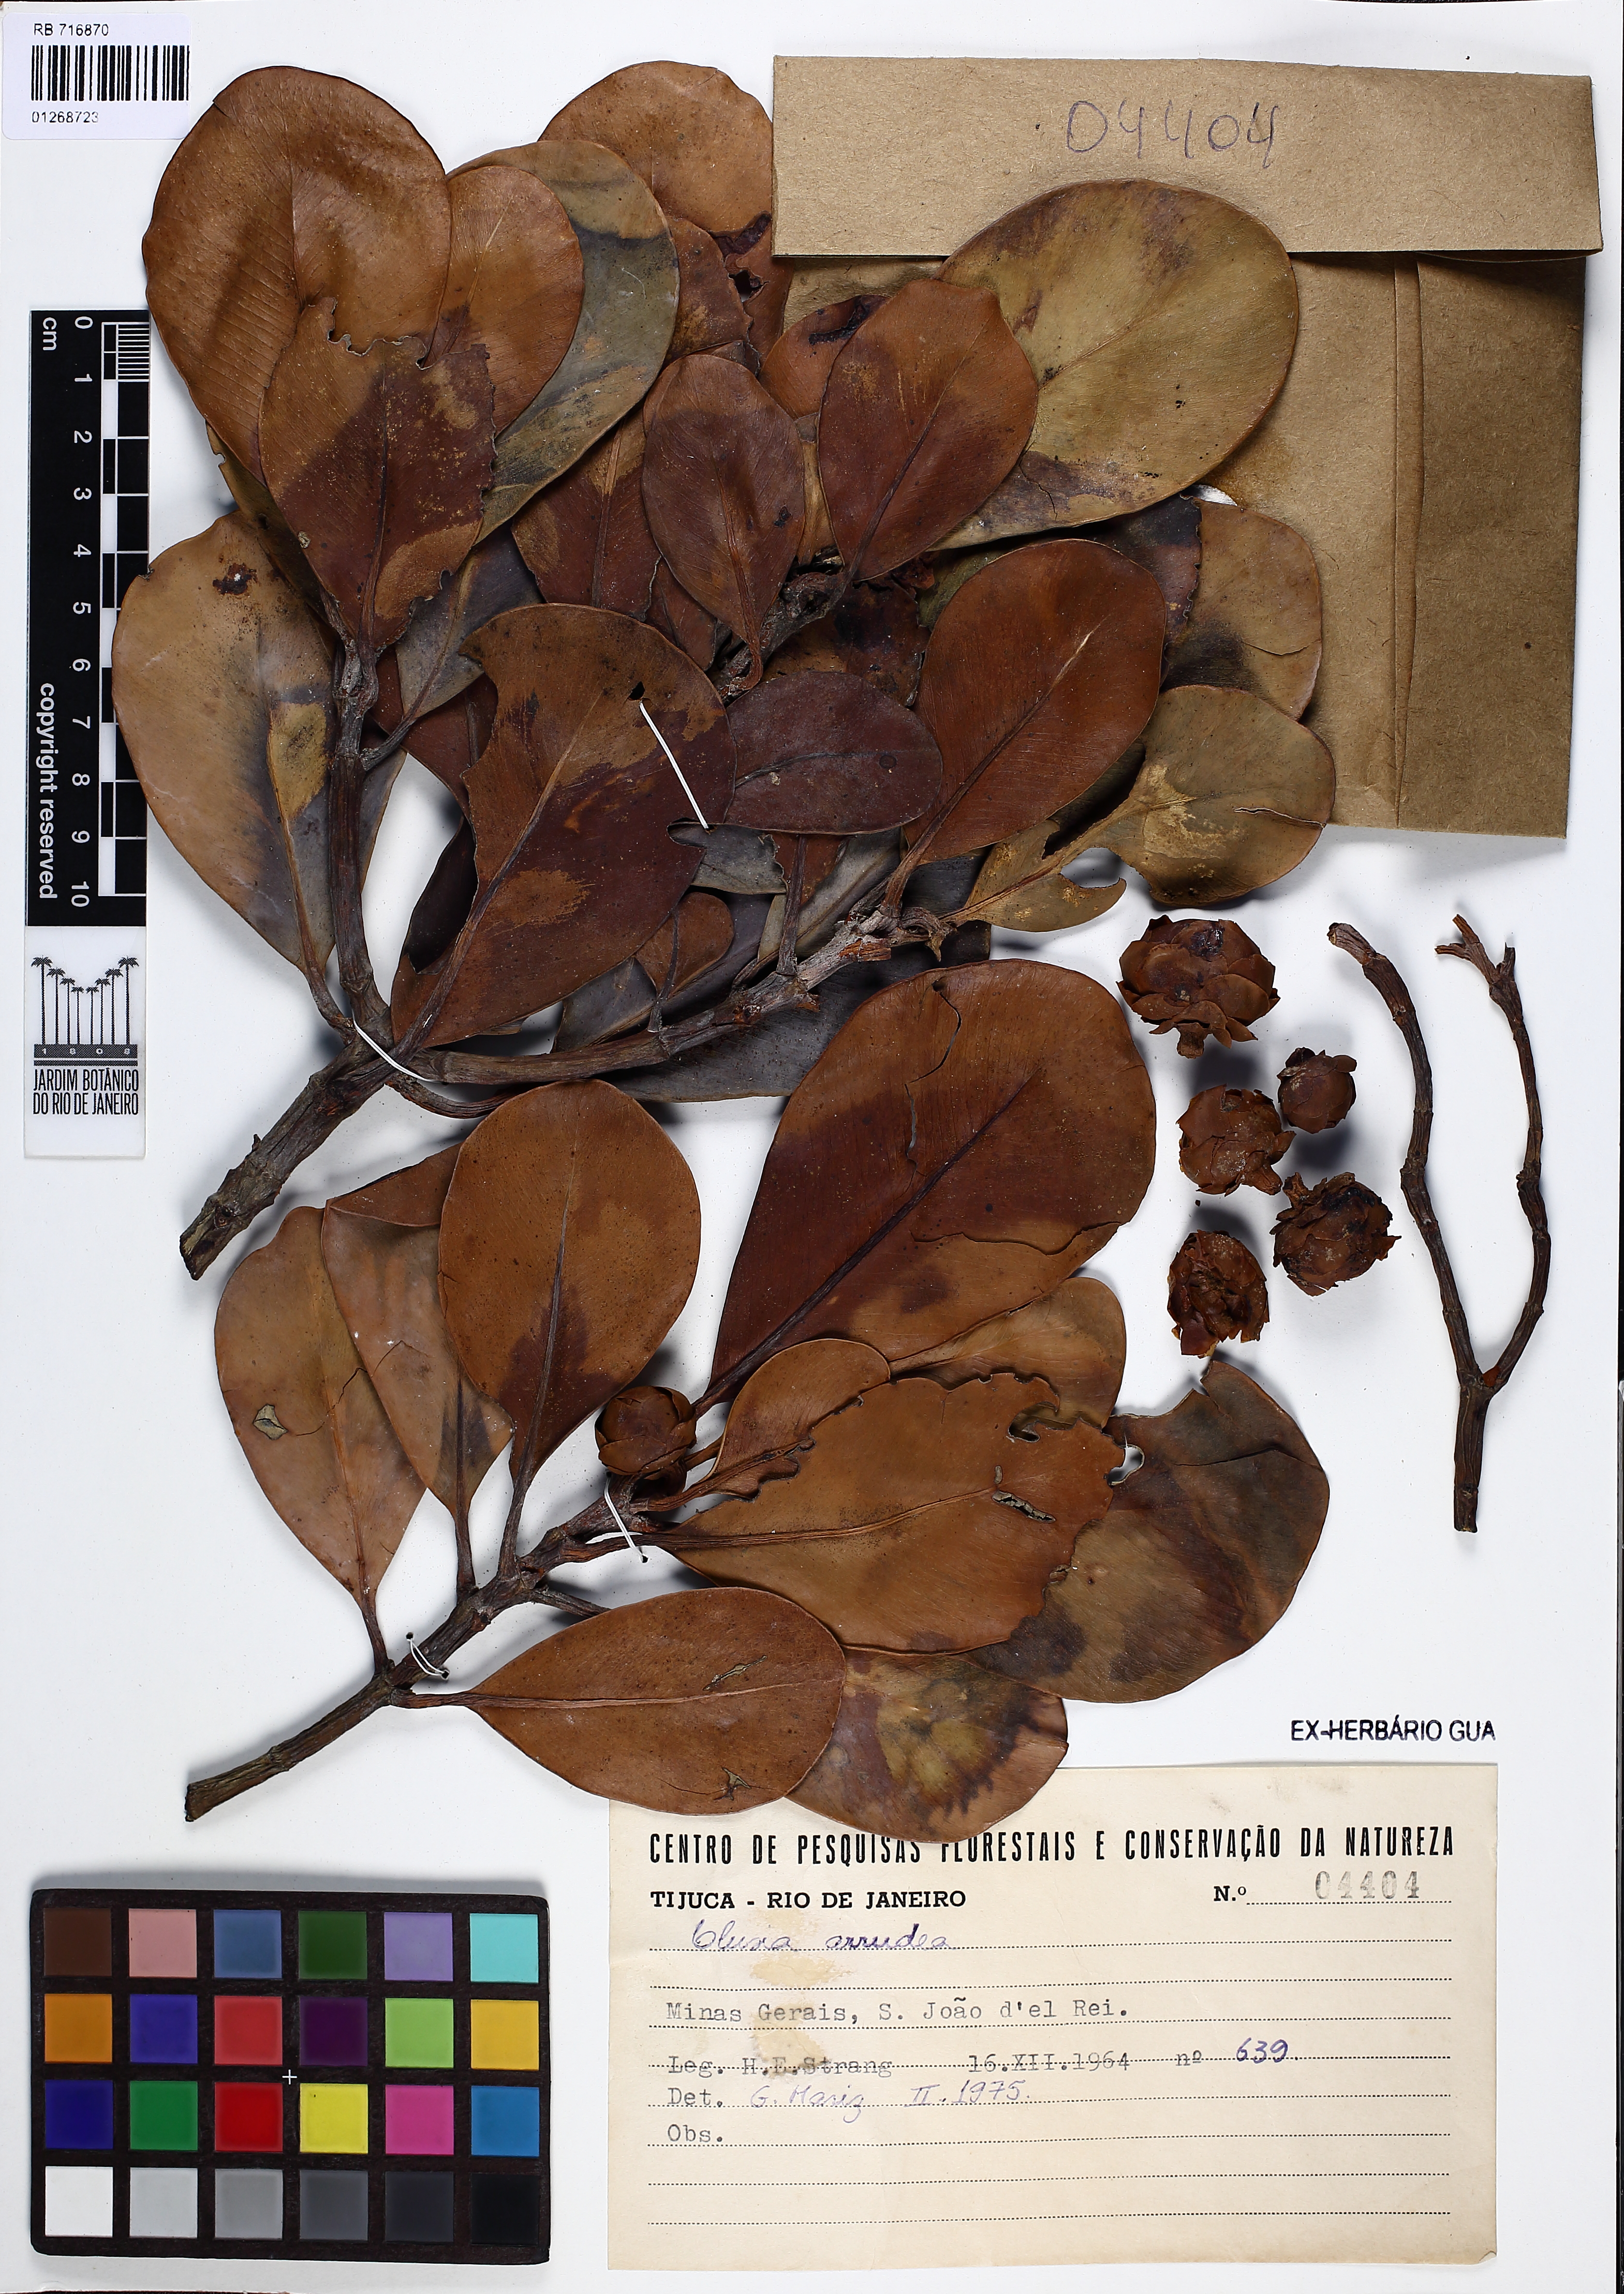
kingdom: Plantae
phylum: Tracheophyta
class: Magnoliopsida
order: Malpighiales
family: Clusiaceae
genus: Clusia
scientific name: Clusia mexiae
